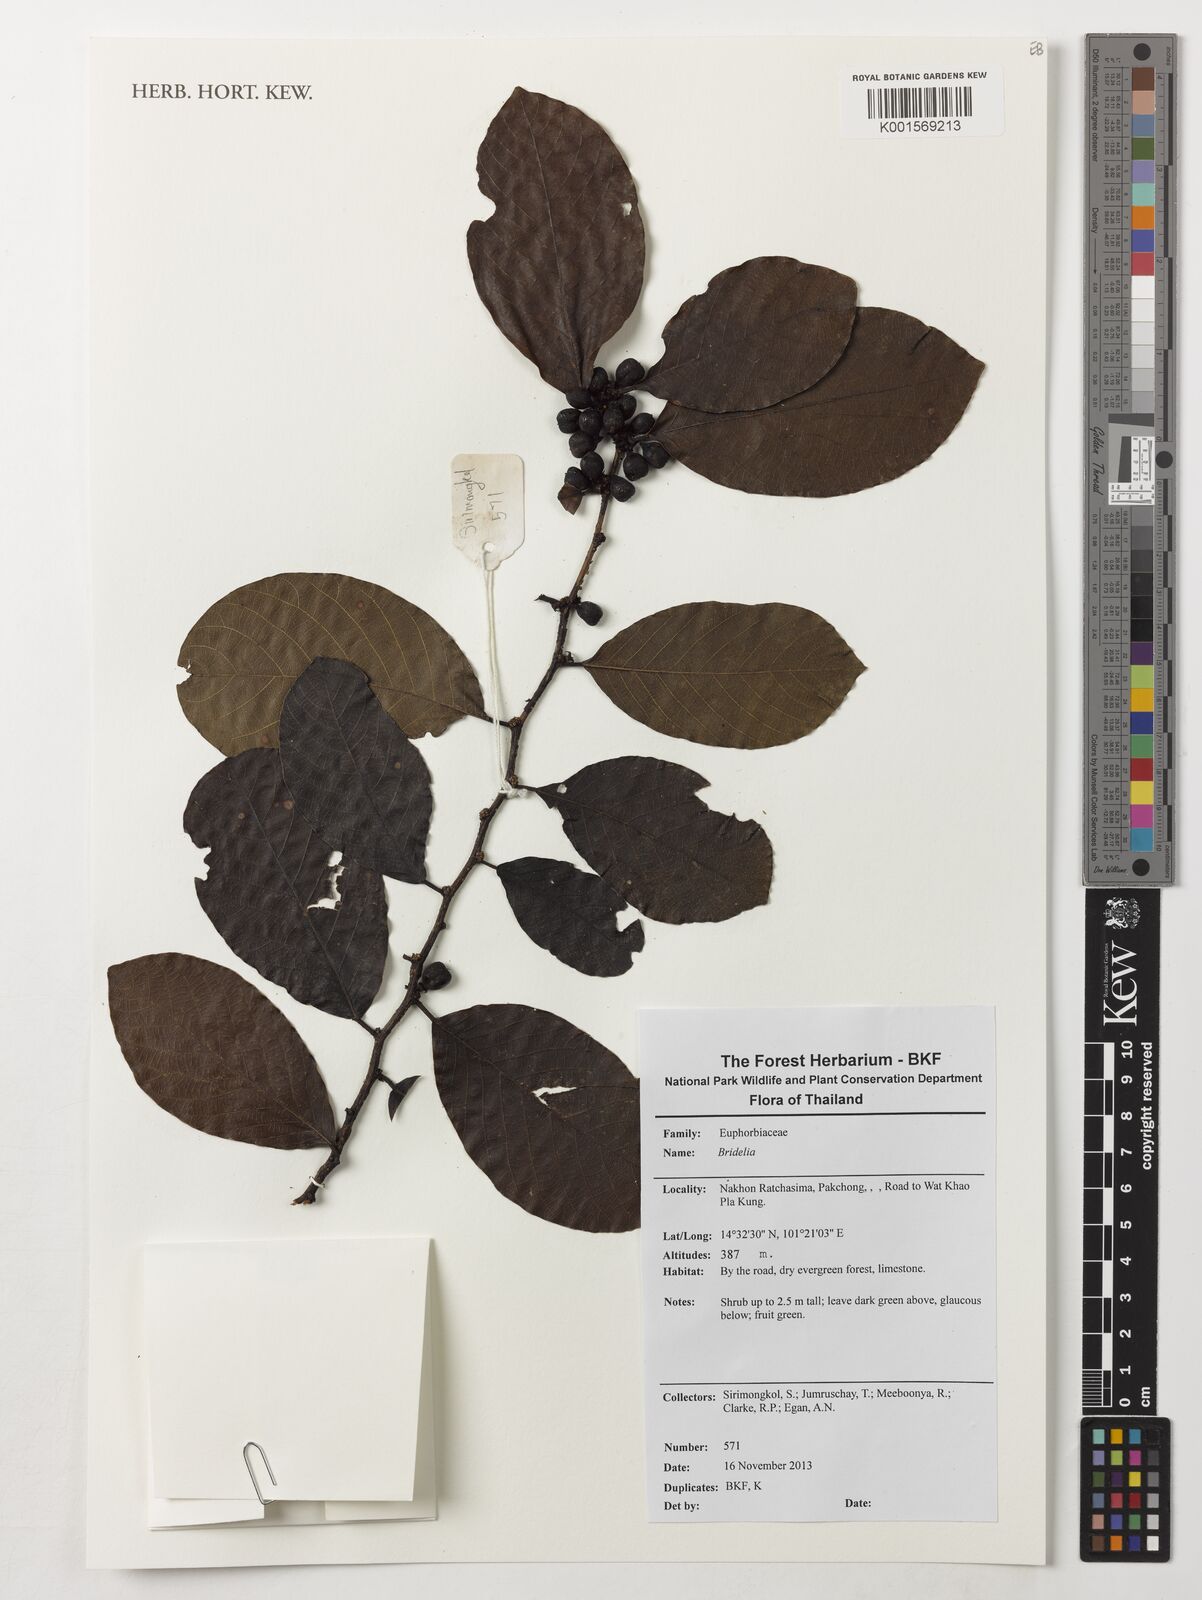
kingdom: Plantae
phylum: Tracheophyta
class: Magnoliopsida
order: Malpighiales
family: Phyllanthaceae
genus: Bridelia
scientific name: Bridelia
